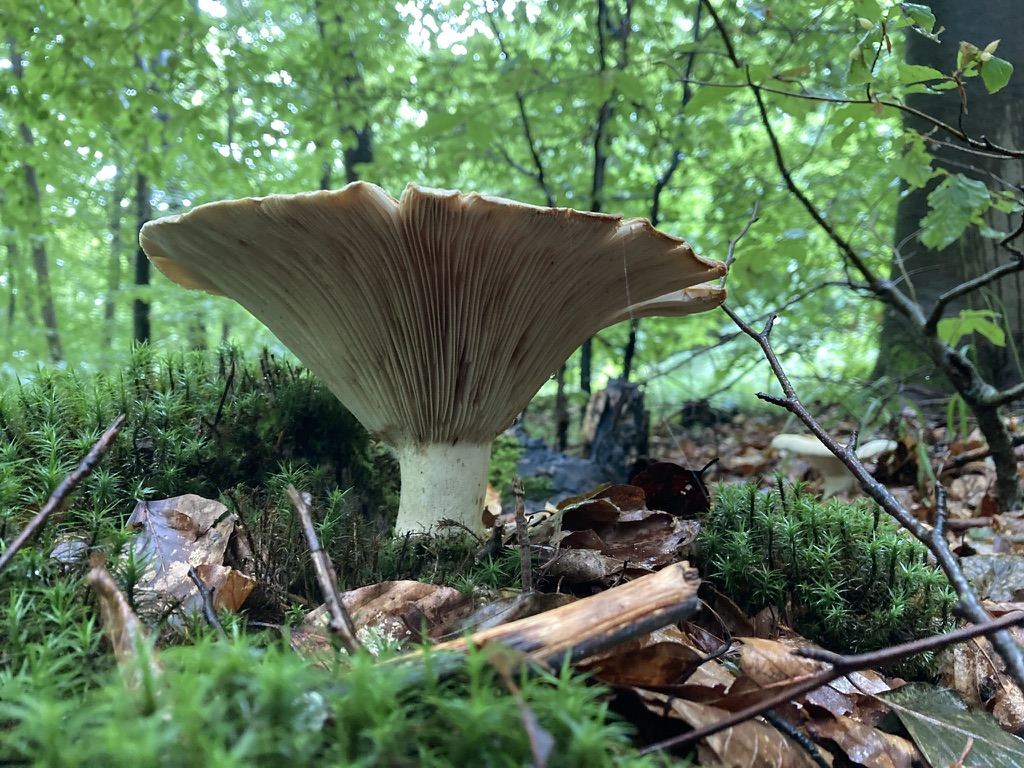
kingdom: Fungi
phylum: Basidiomycota
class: Agaricomycetes
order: Russulales
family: Russulaceae
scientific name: Russulaceae
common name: skørhatfamilien
